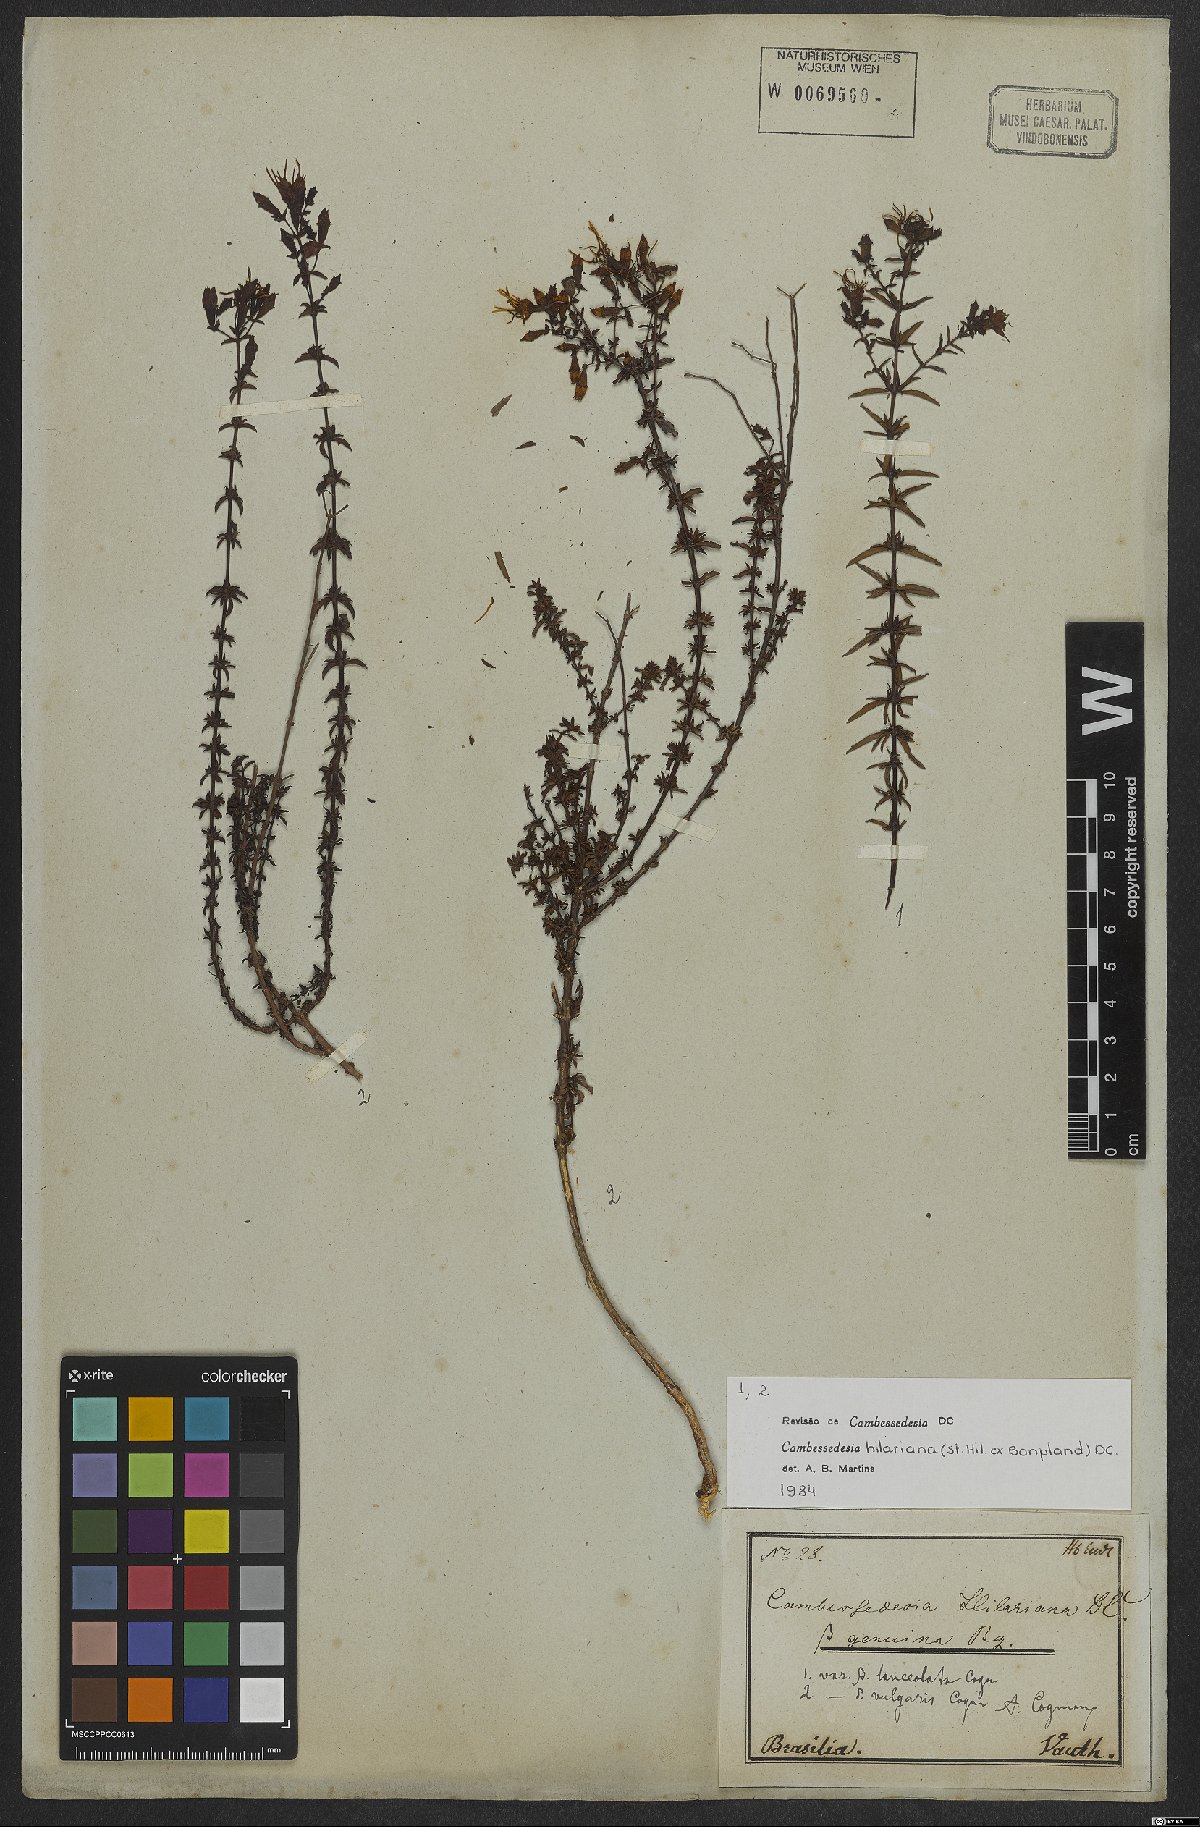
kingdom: Plantae
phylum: Tracheophyta
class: Magnoliopsida
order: Myrtales
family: Melastomataceae
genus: Cambessedesia
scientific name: Cambessedesia hilariana
